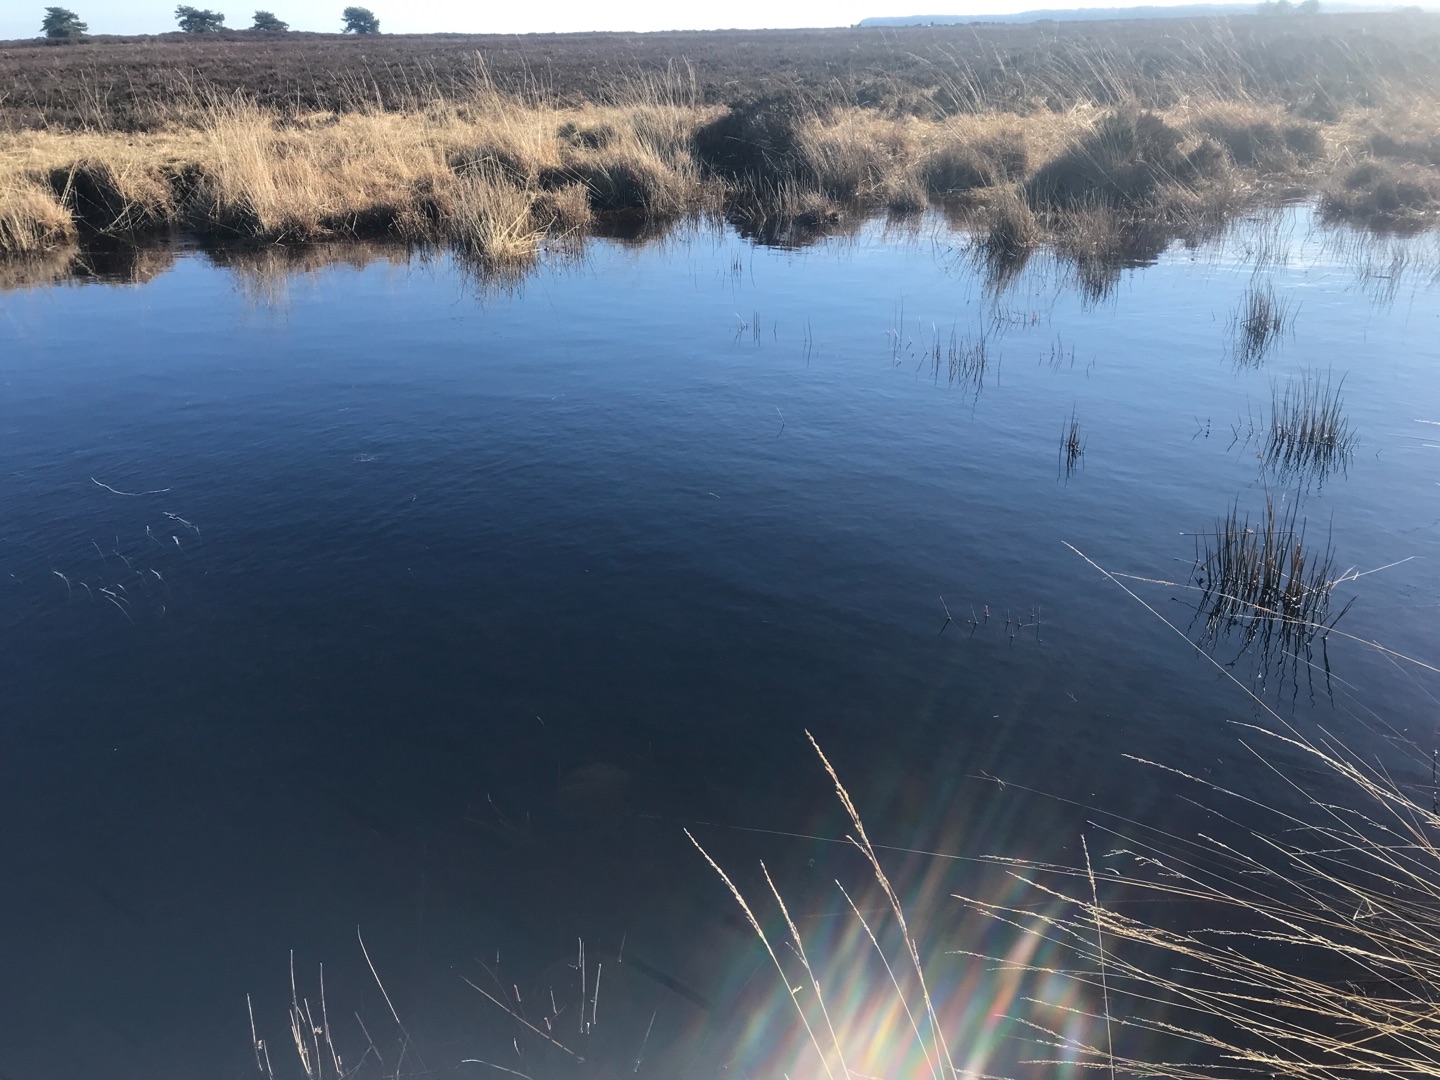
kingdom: Animalia
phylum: Chordata
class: Amphibia
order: Anura
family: Ranidae
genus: Rana
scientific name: Rana dalmatina
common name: Springfrø
